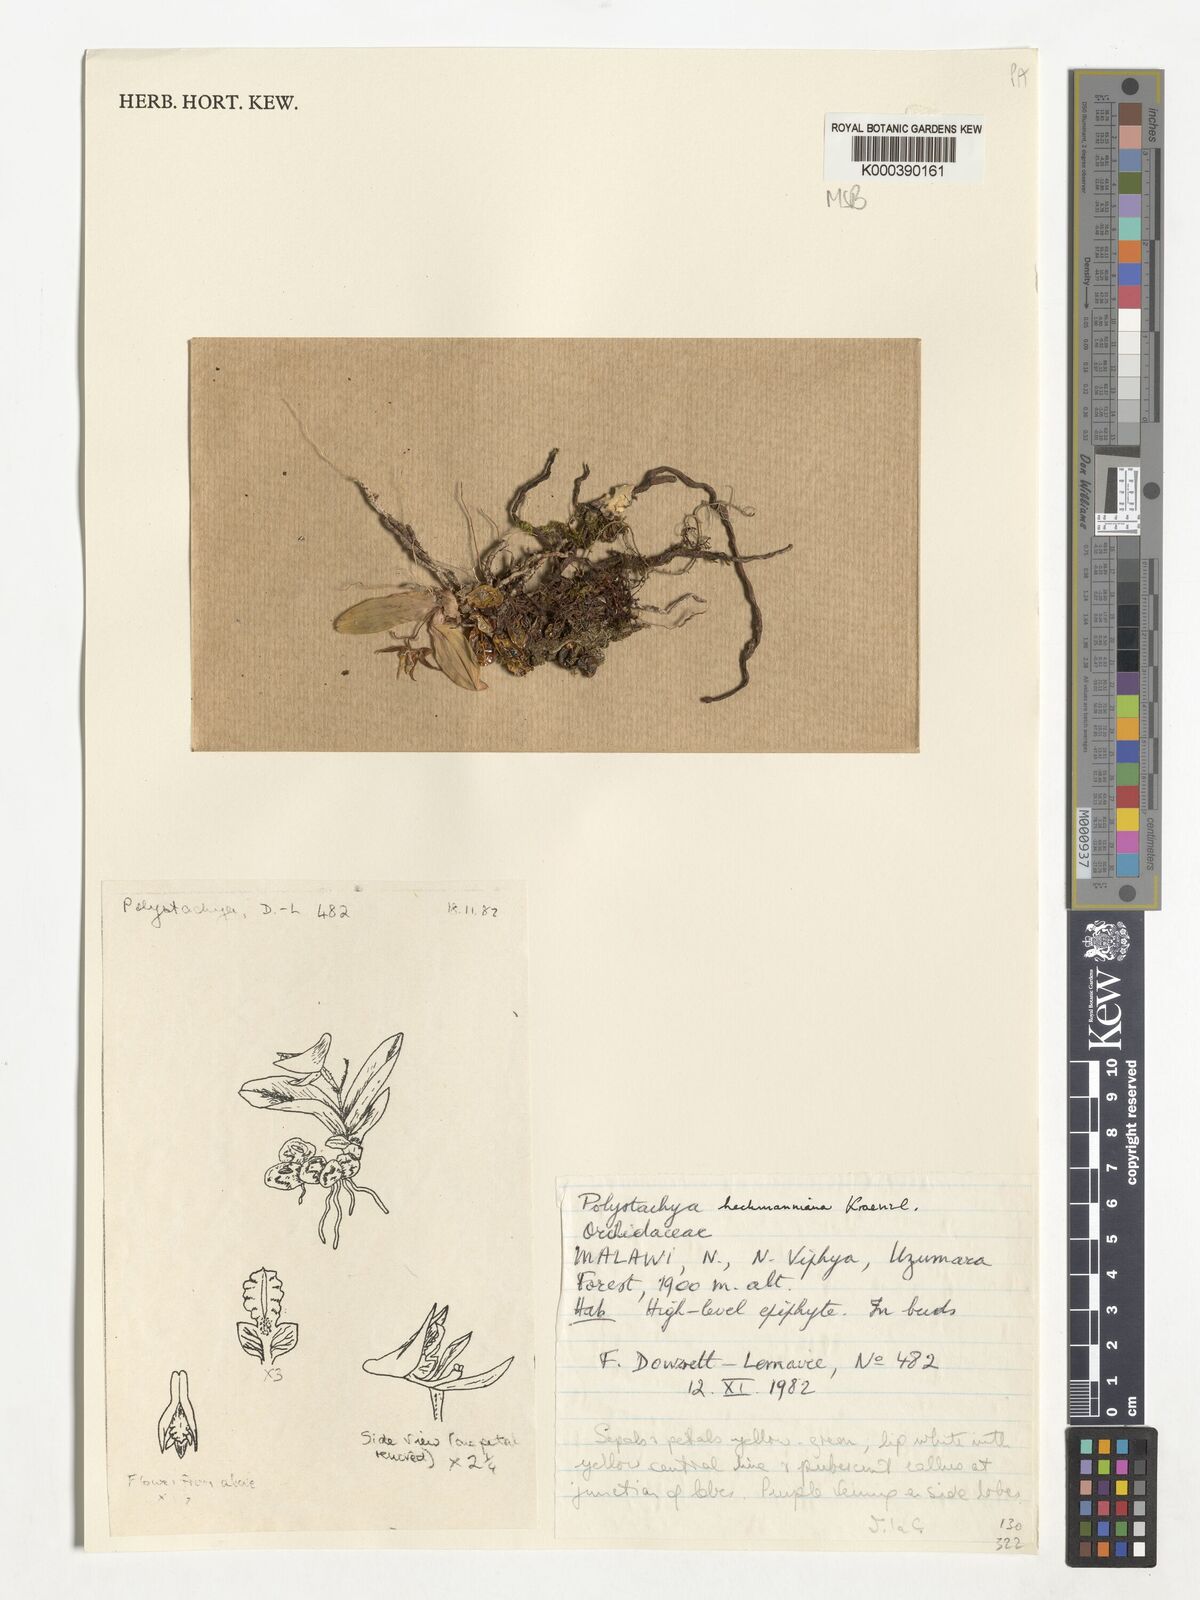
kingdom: Plantae
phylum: Tracheophyta
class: Liliopsida
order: Asparagales
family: Orchidaceae
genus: Polystachya
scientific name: Polystachya heckmanniana
